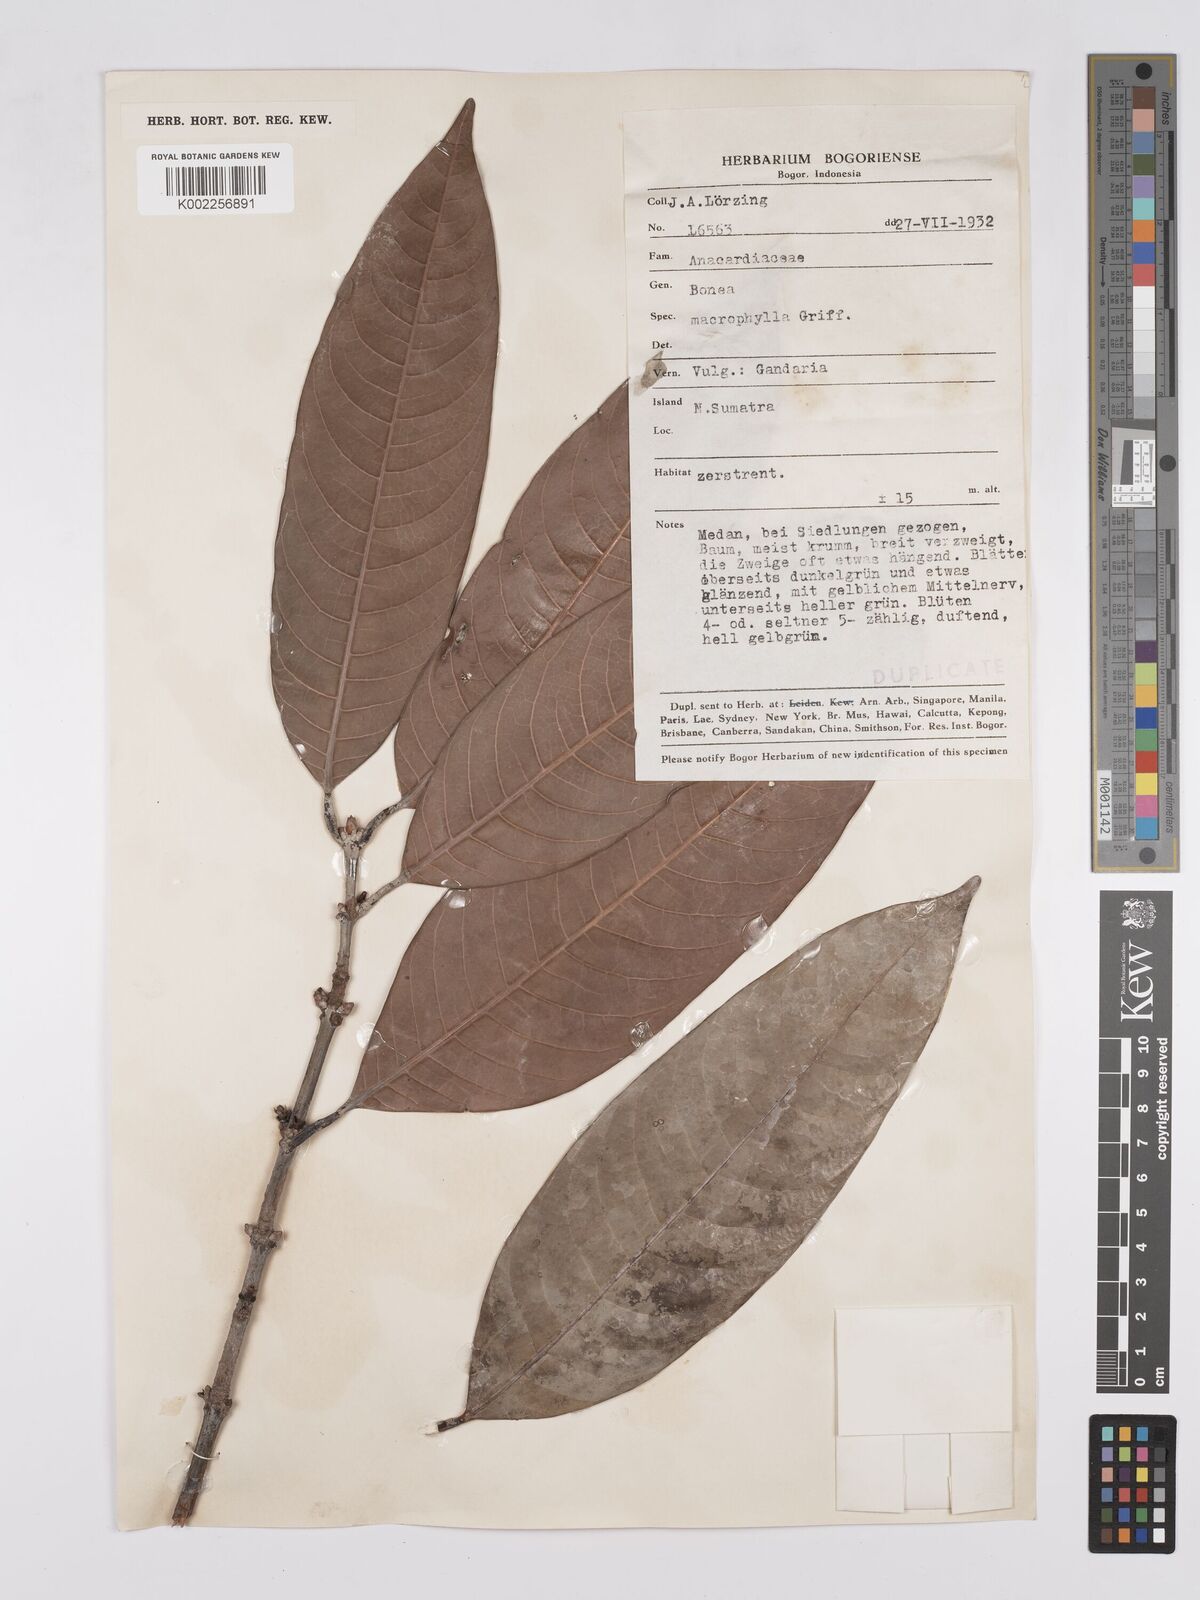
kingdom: Plantae
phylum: Tracheophyta
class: Magnoliopsida
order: Sapindales
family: Anacardiaceae
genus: Bouea
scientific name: Bouea macrophylla
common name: Gandaria
